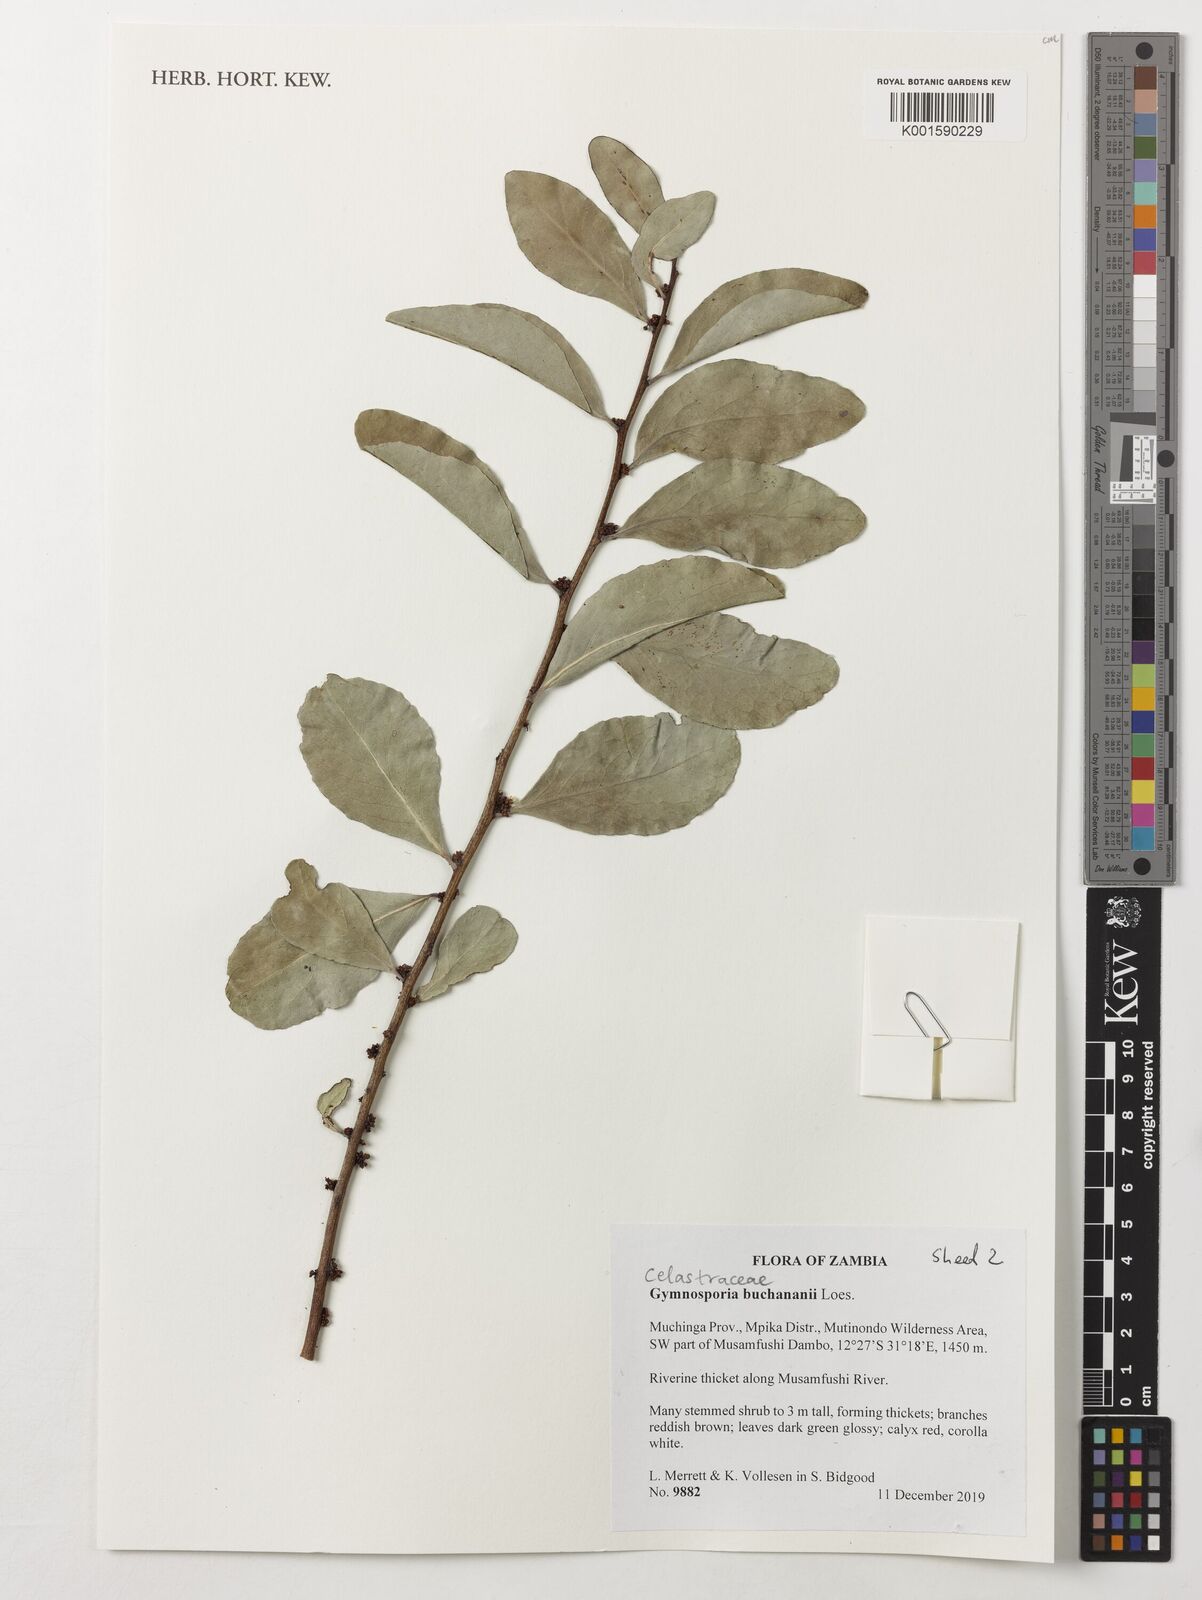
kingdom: Plantae
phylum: Tracheophyta
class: Magnoliopsida
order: Celastrales
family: Celastraceae
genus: Gymnosporia
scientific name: Gymnosporia buchananii
